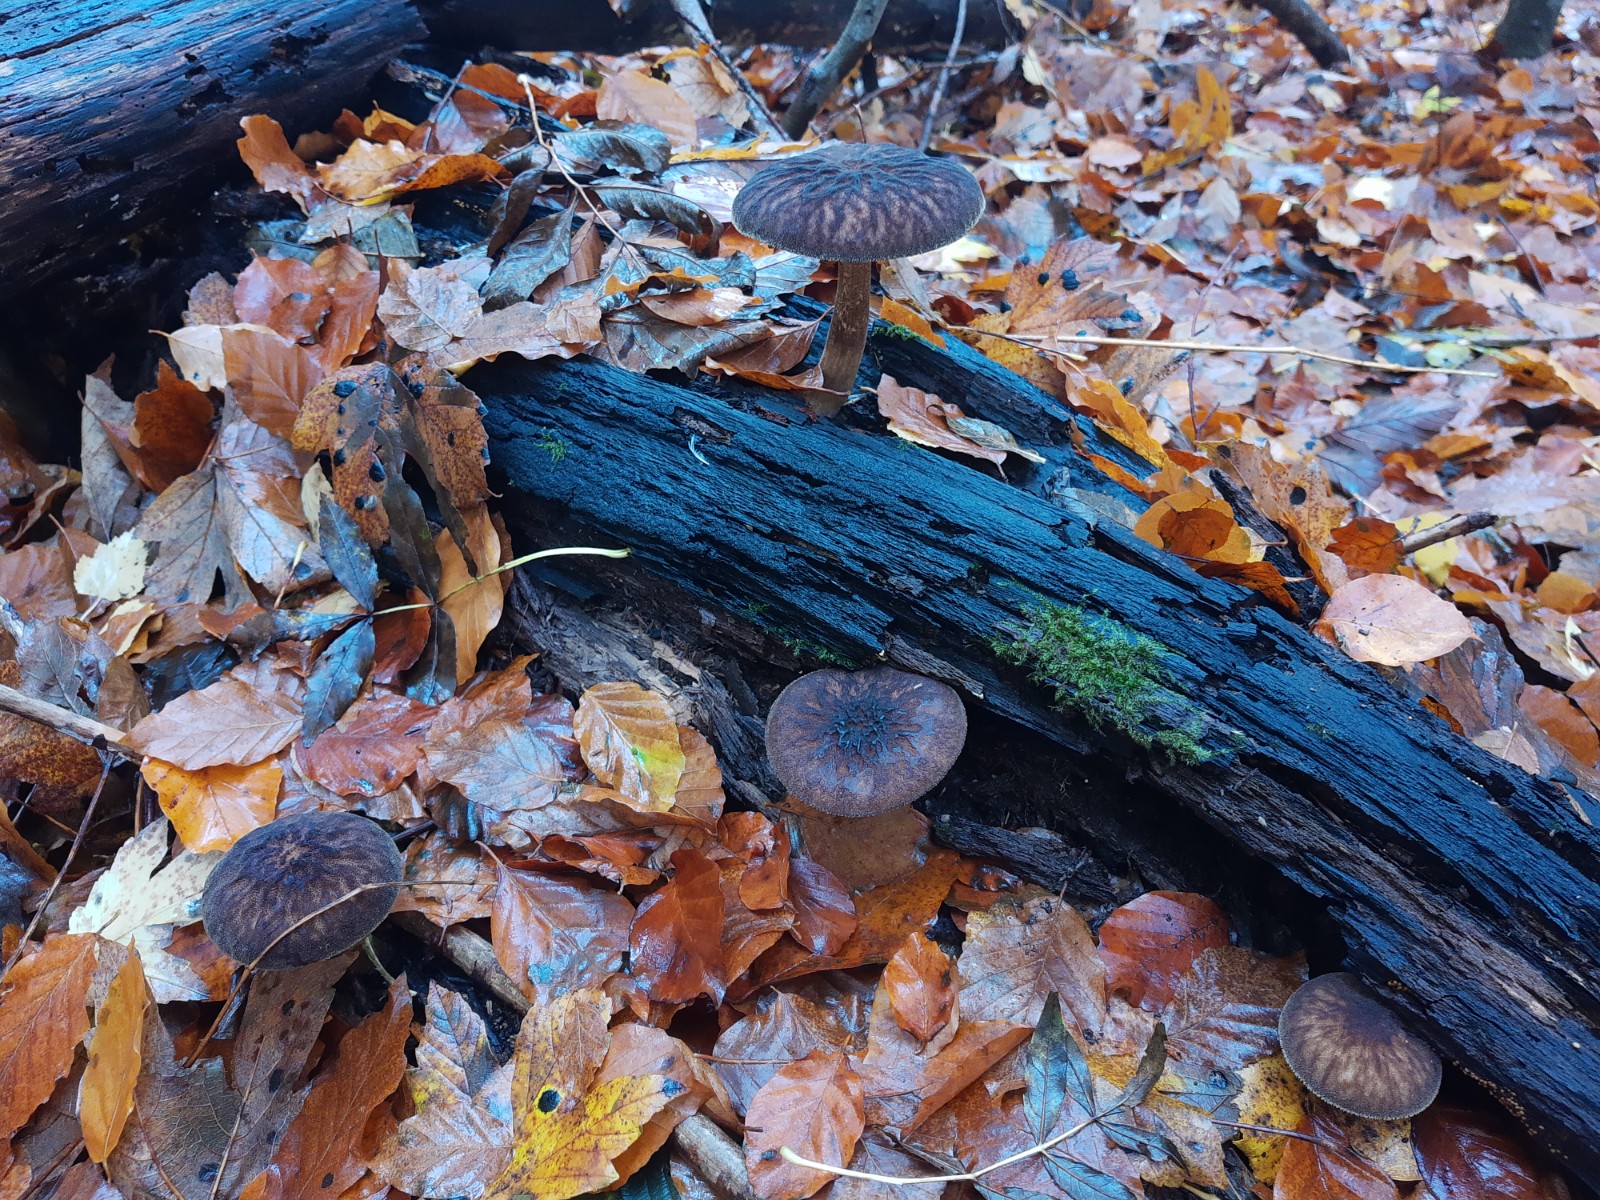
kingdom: Fungi
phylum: Basidiomycota
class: Agaricomycetes
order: Agaricales
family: Pluteaceae
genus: Pluteus
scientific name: Pluteus umbrosus
